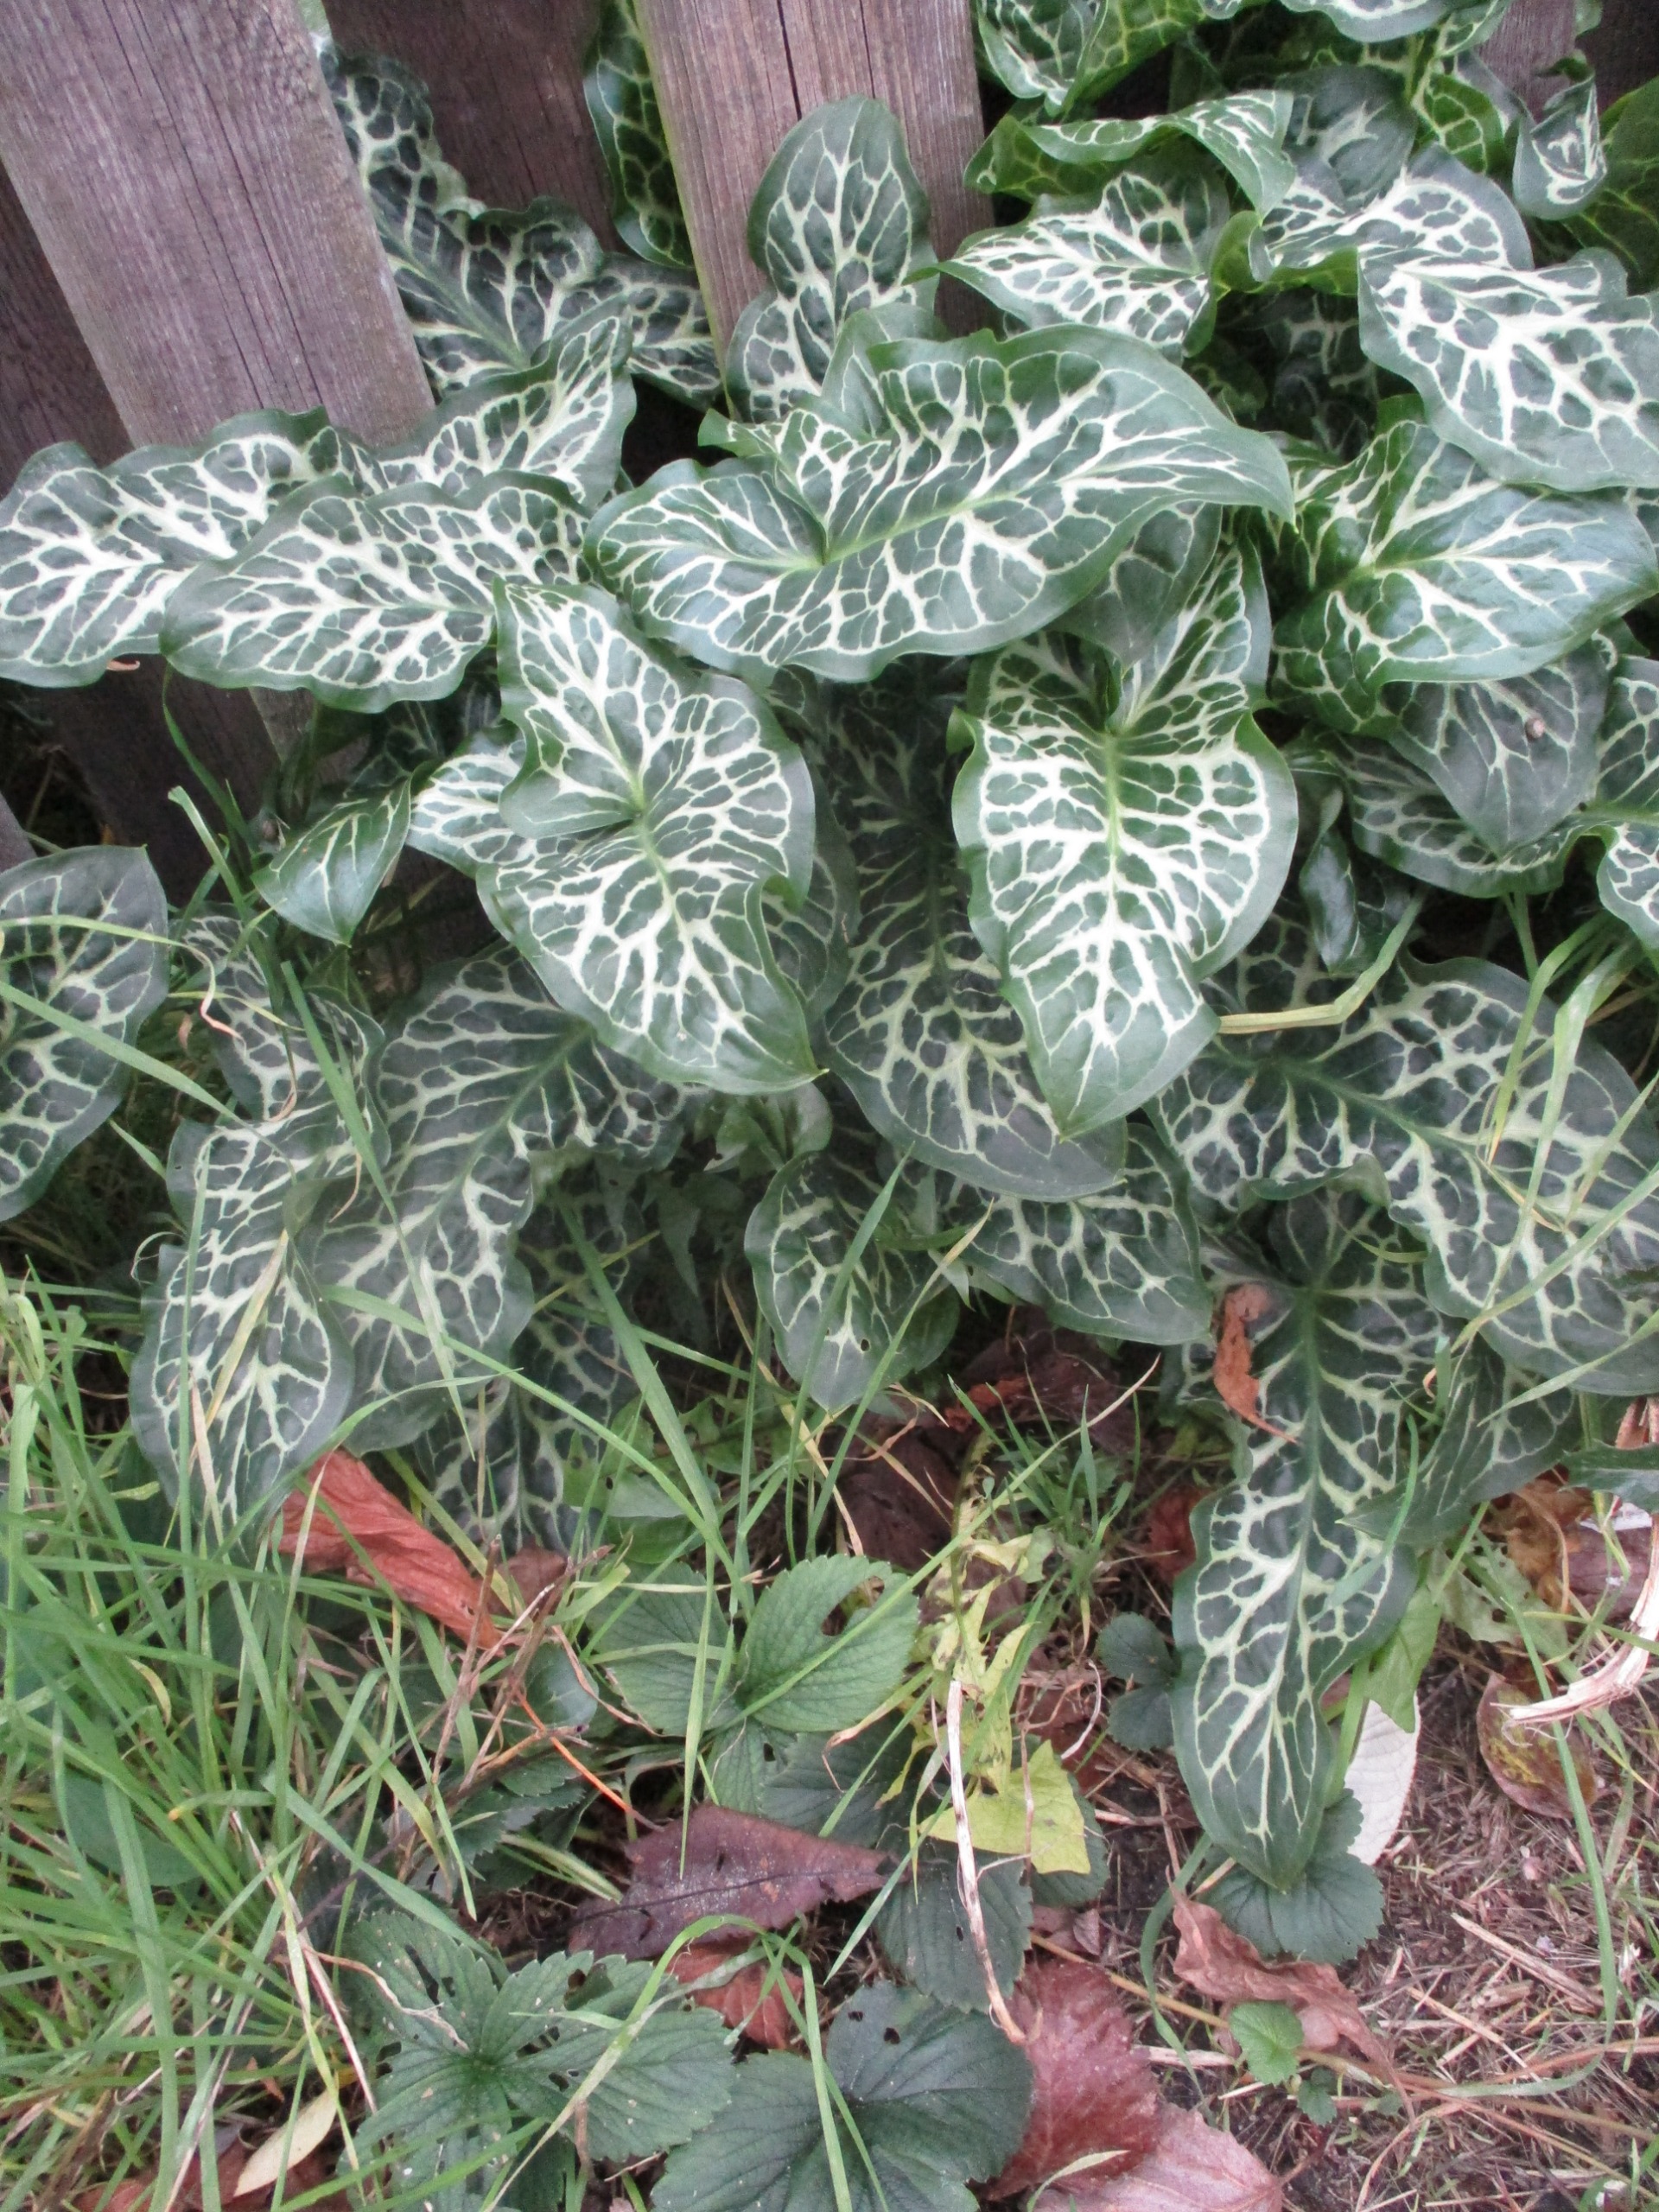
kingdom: Plantae
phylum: Tracheophyta
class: Liliopsida
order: Alismatales
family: Araceae
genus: Arum
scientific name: Arum italicum
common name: Italiensk arum
